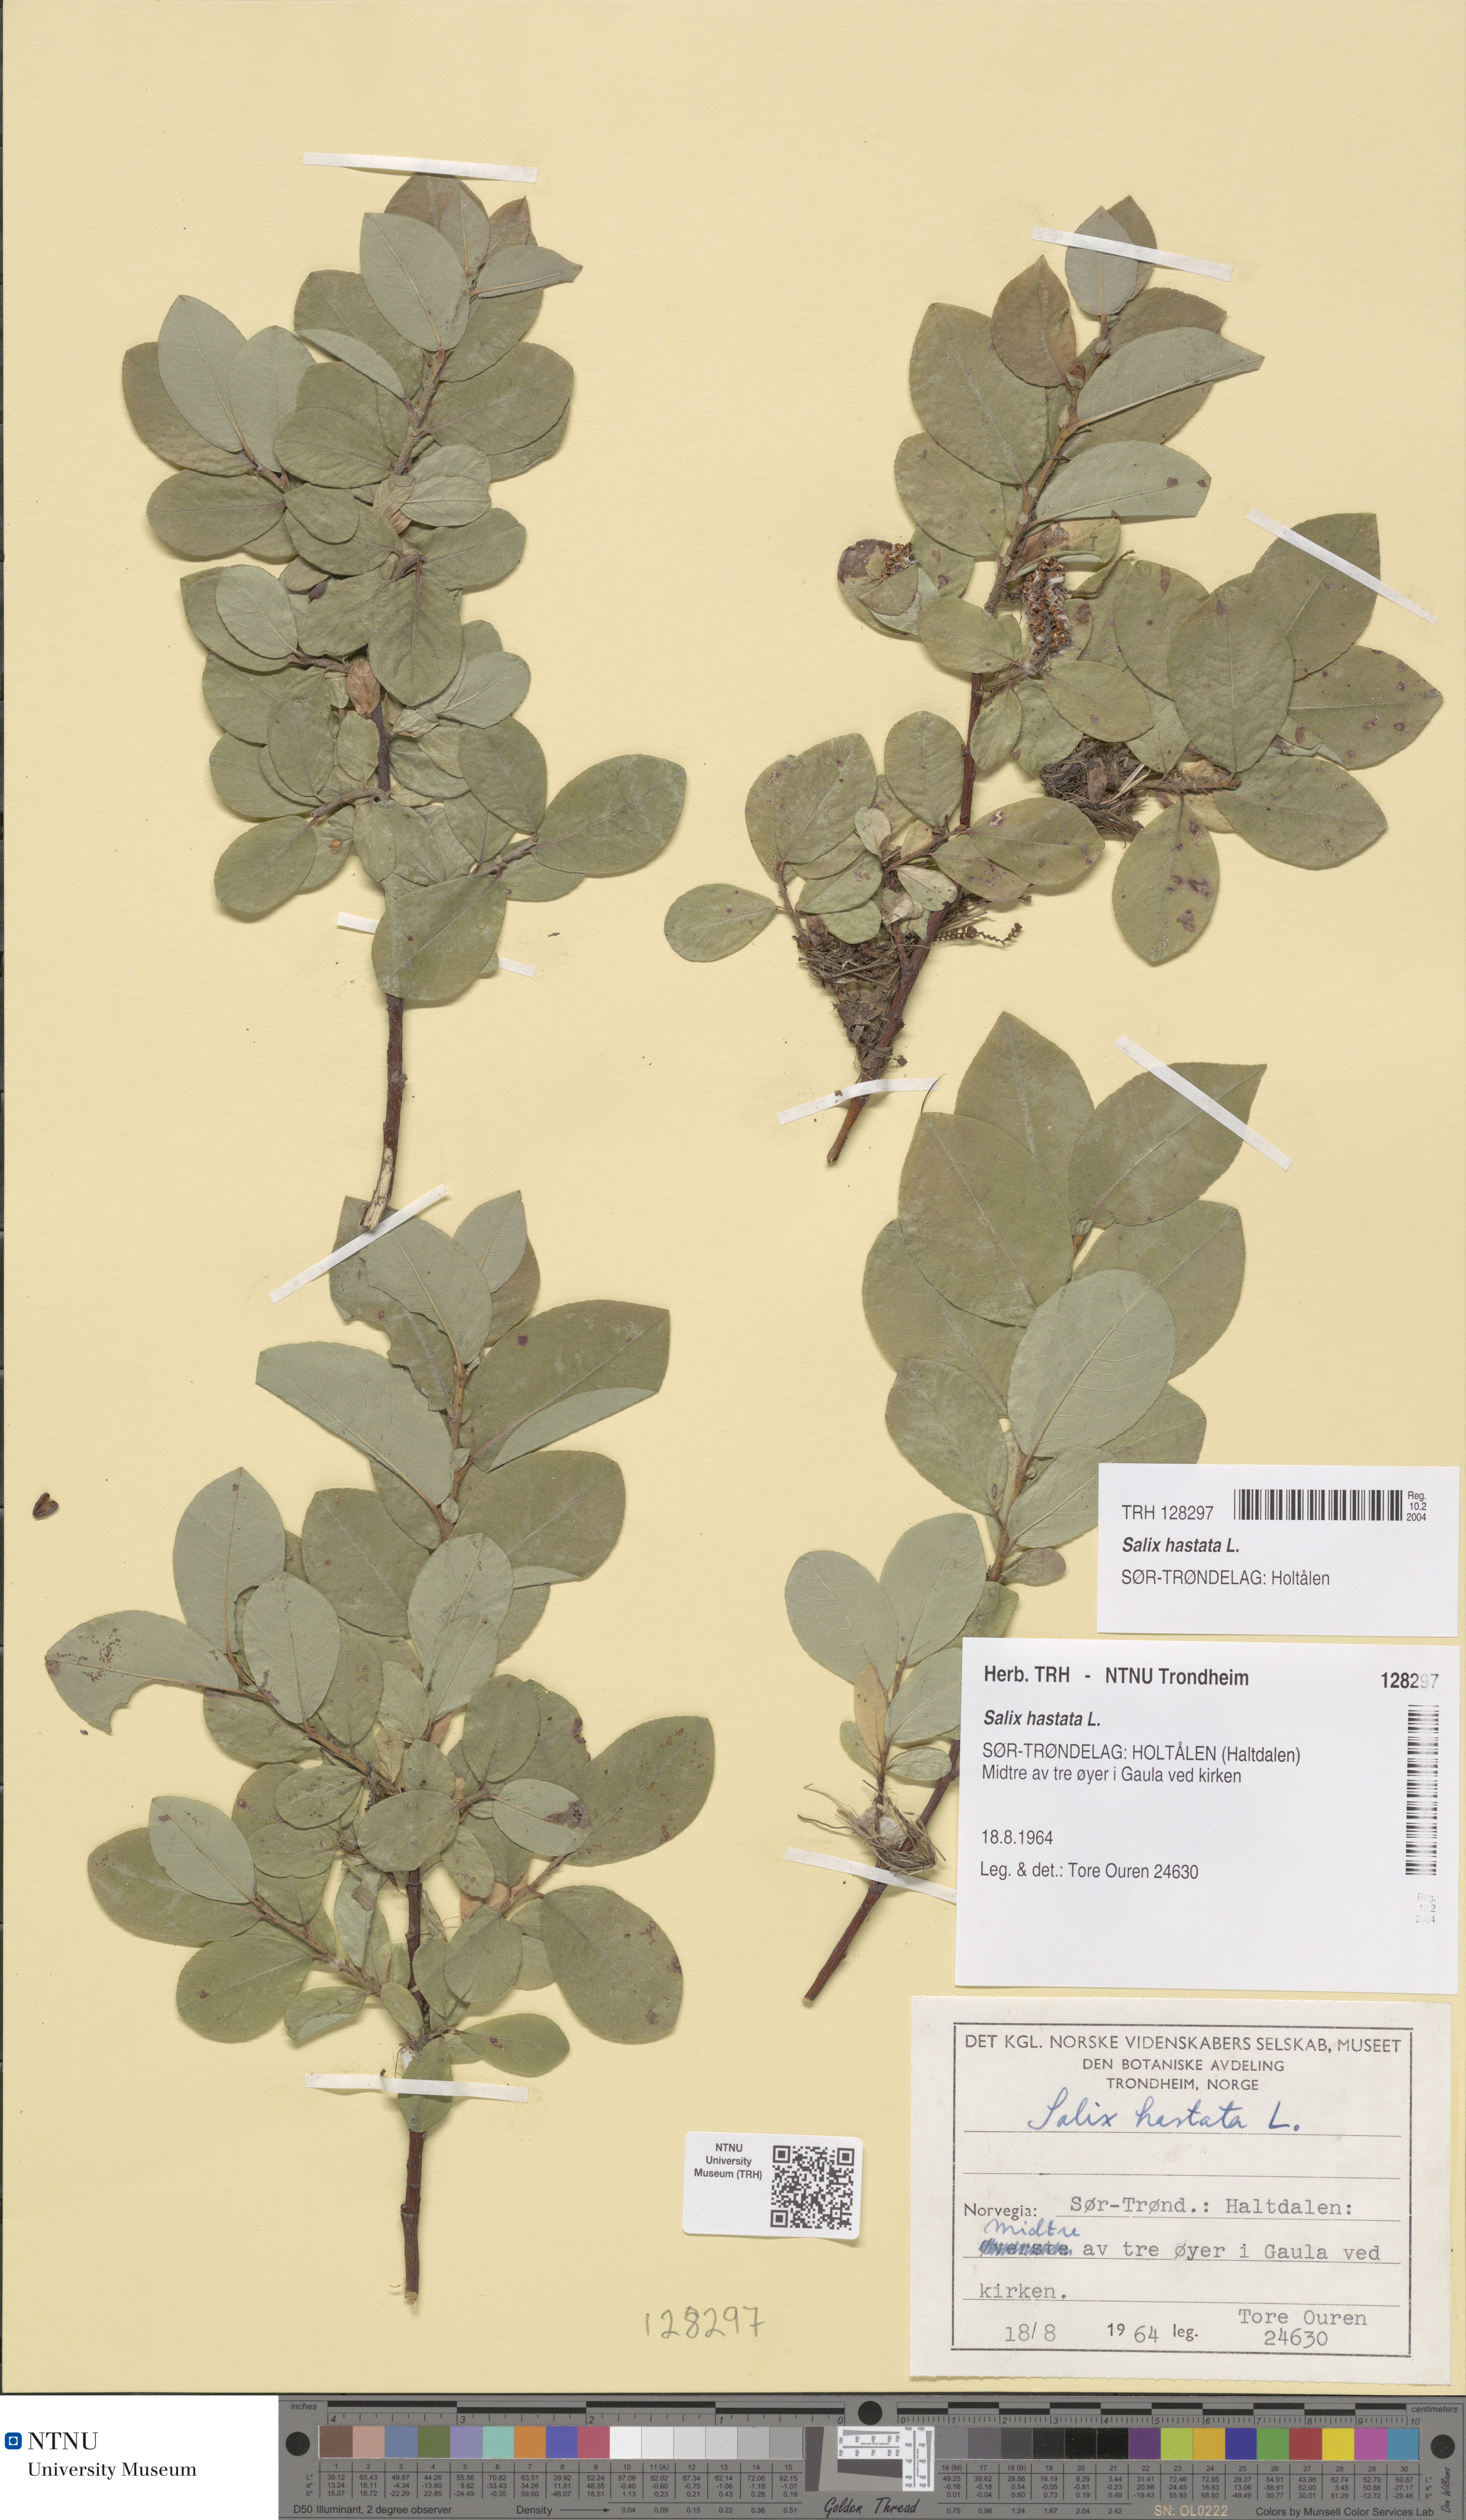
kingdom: Plantae
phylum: Tracheophyta
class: Magnoliopsida
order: Malpighiales
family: Salicaceae
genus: Salix
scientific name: Salix hastata
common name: Halberd willow
